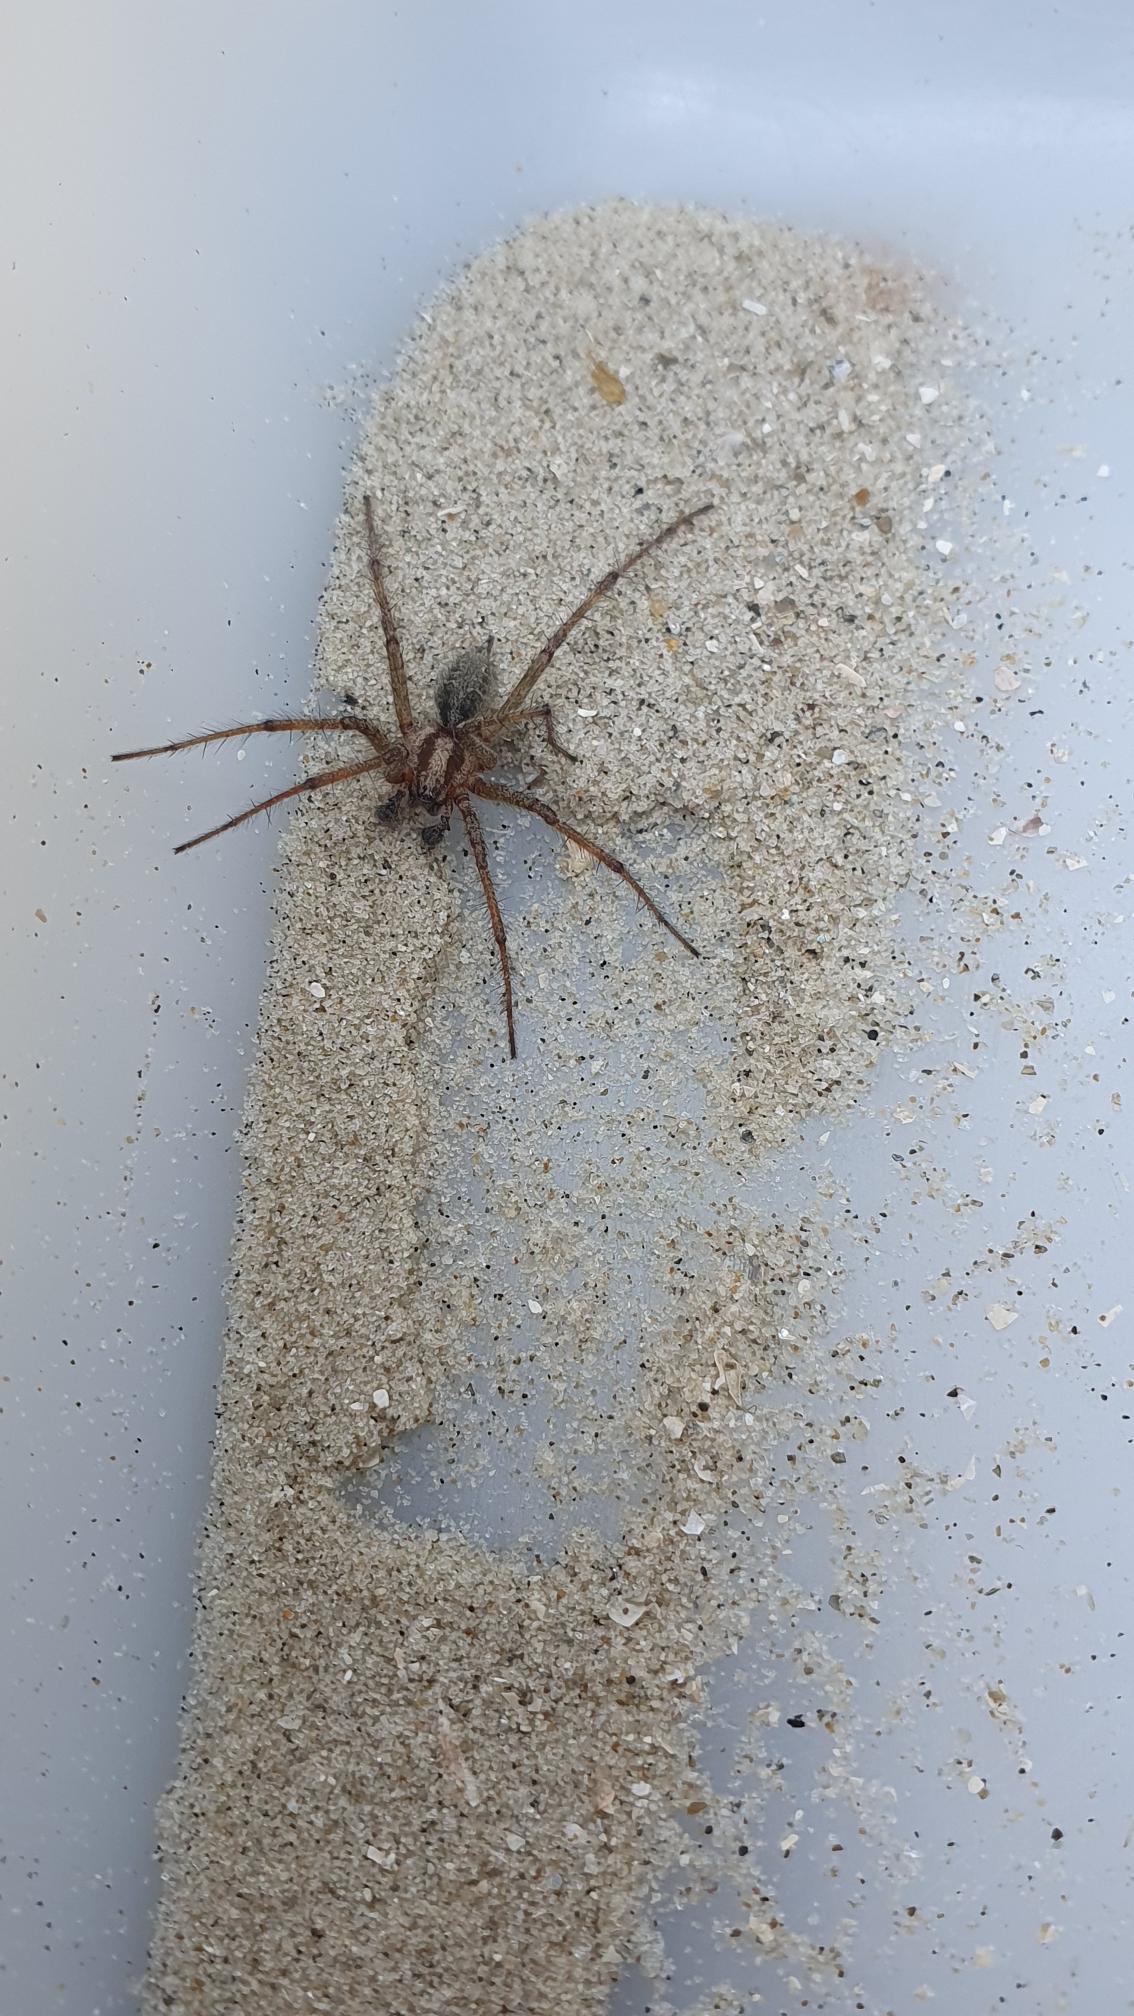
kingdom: Animalia
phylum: Arthropoda
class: Arachnida
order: Araneae
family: Agelenidae
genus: Agelena
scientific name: Agelena labyrinthica
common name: Labyrintedderkop
